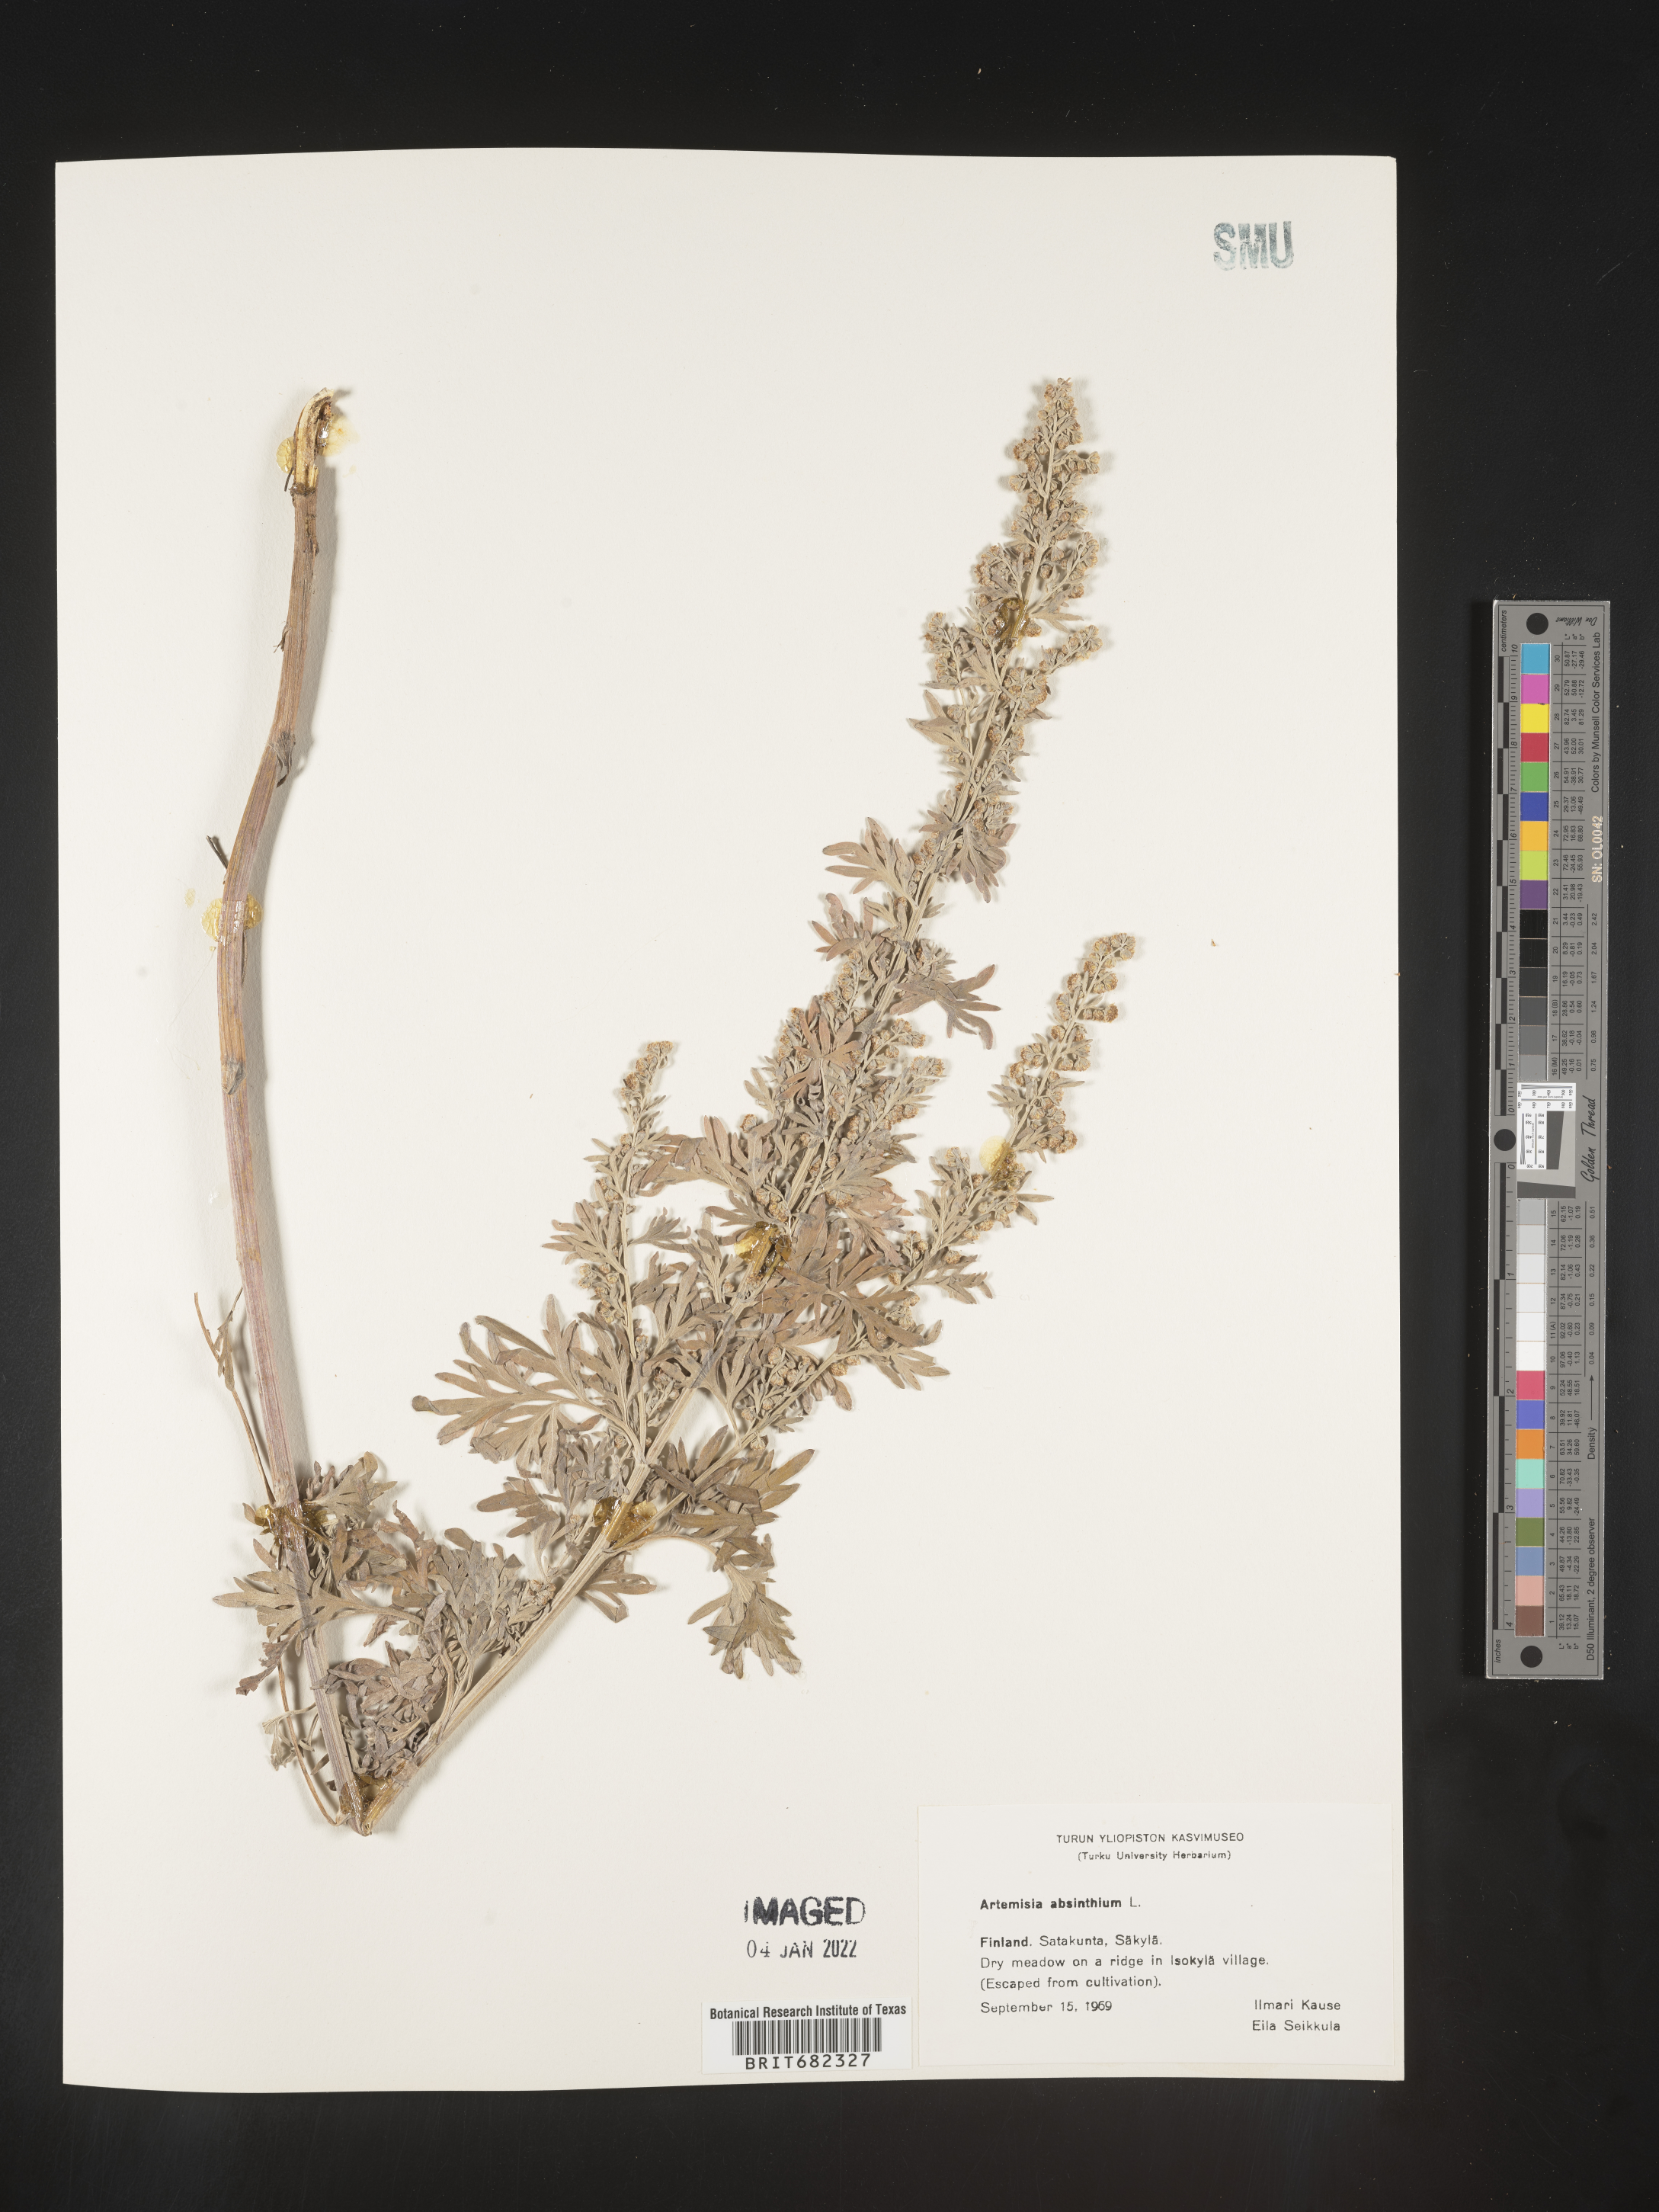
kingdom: Plantae
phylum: Tracheophyta
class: Magnoliopsida
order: Asterales
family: Asteraceae
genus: Artemisia
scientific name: Artemisia
